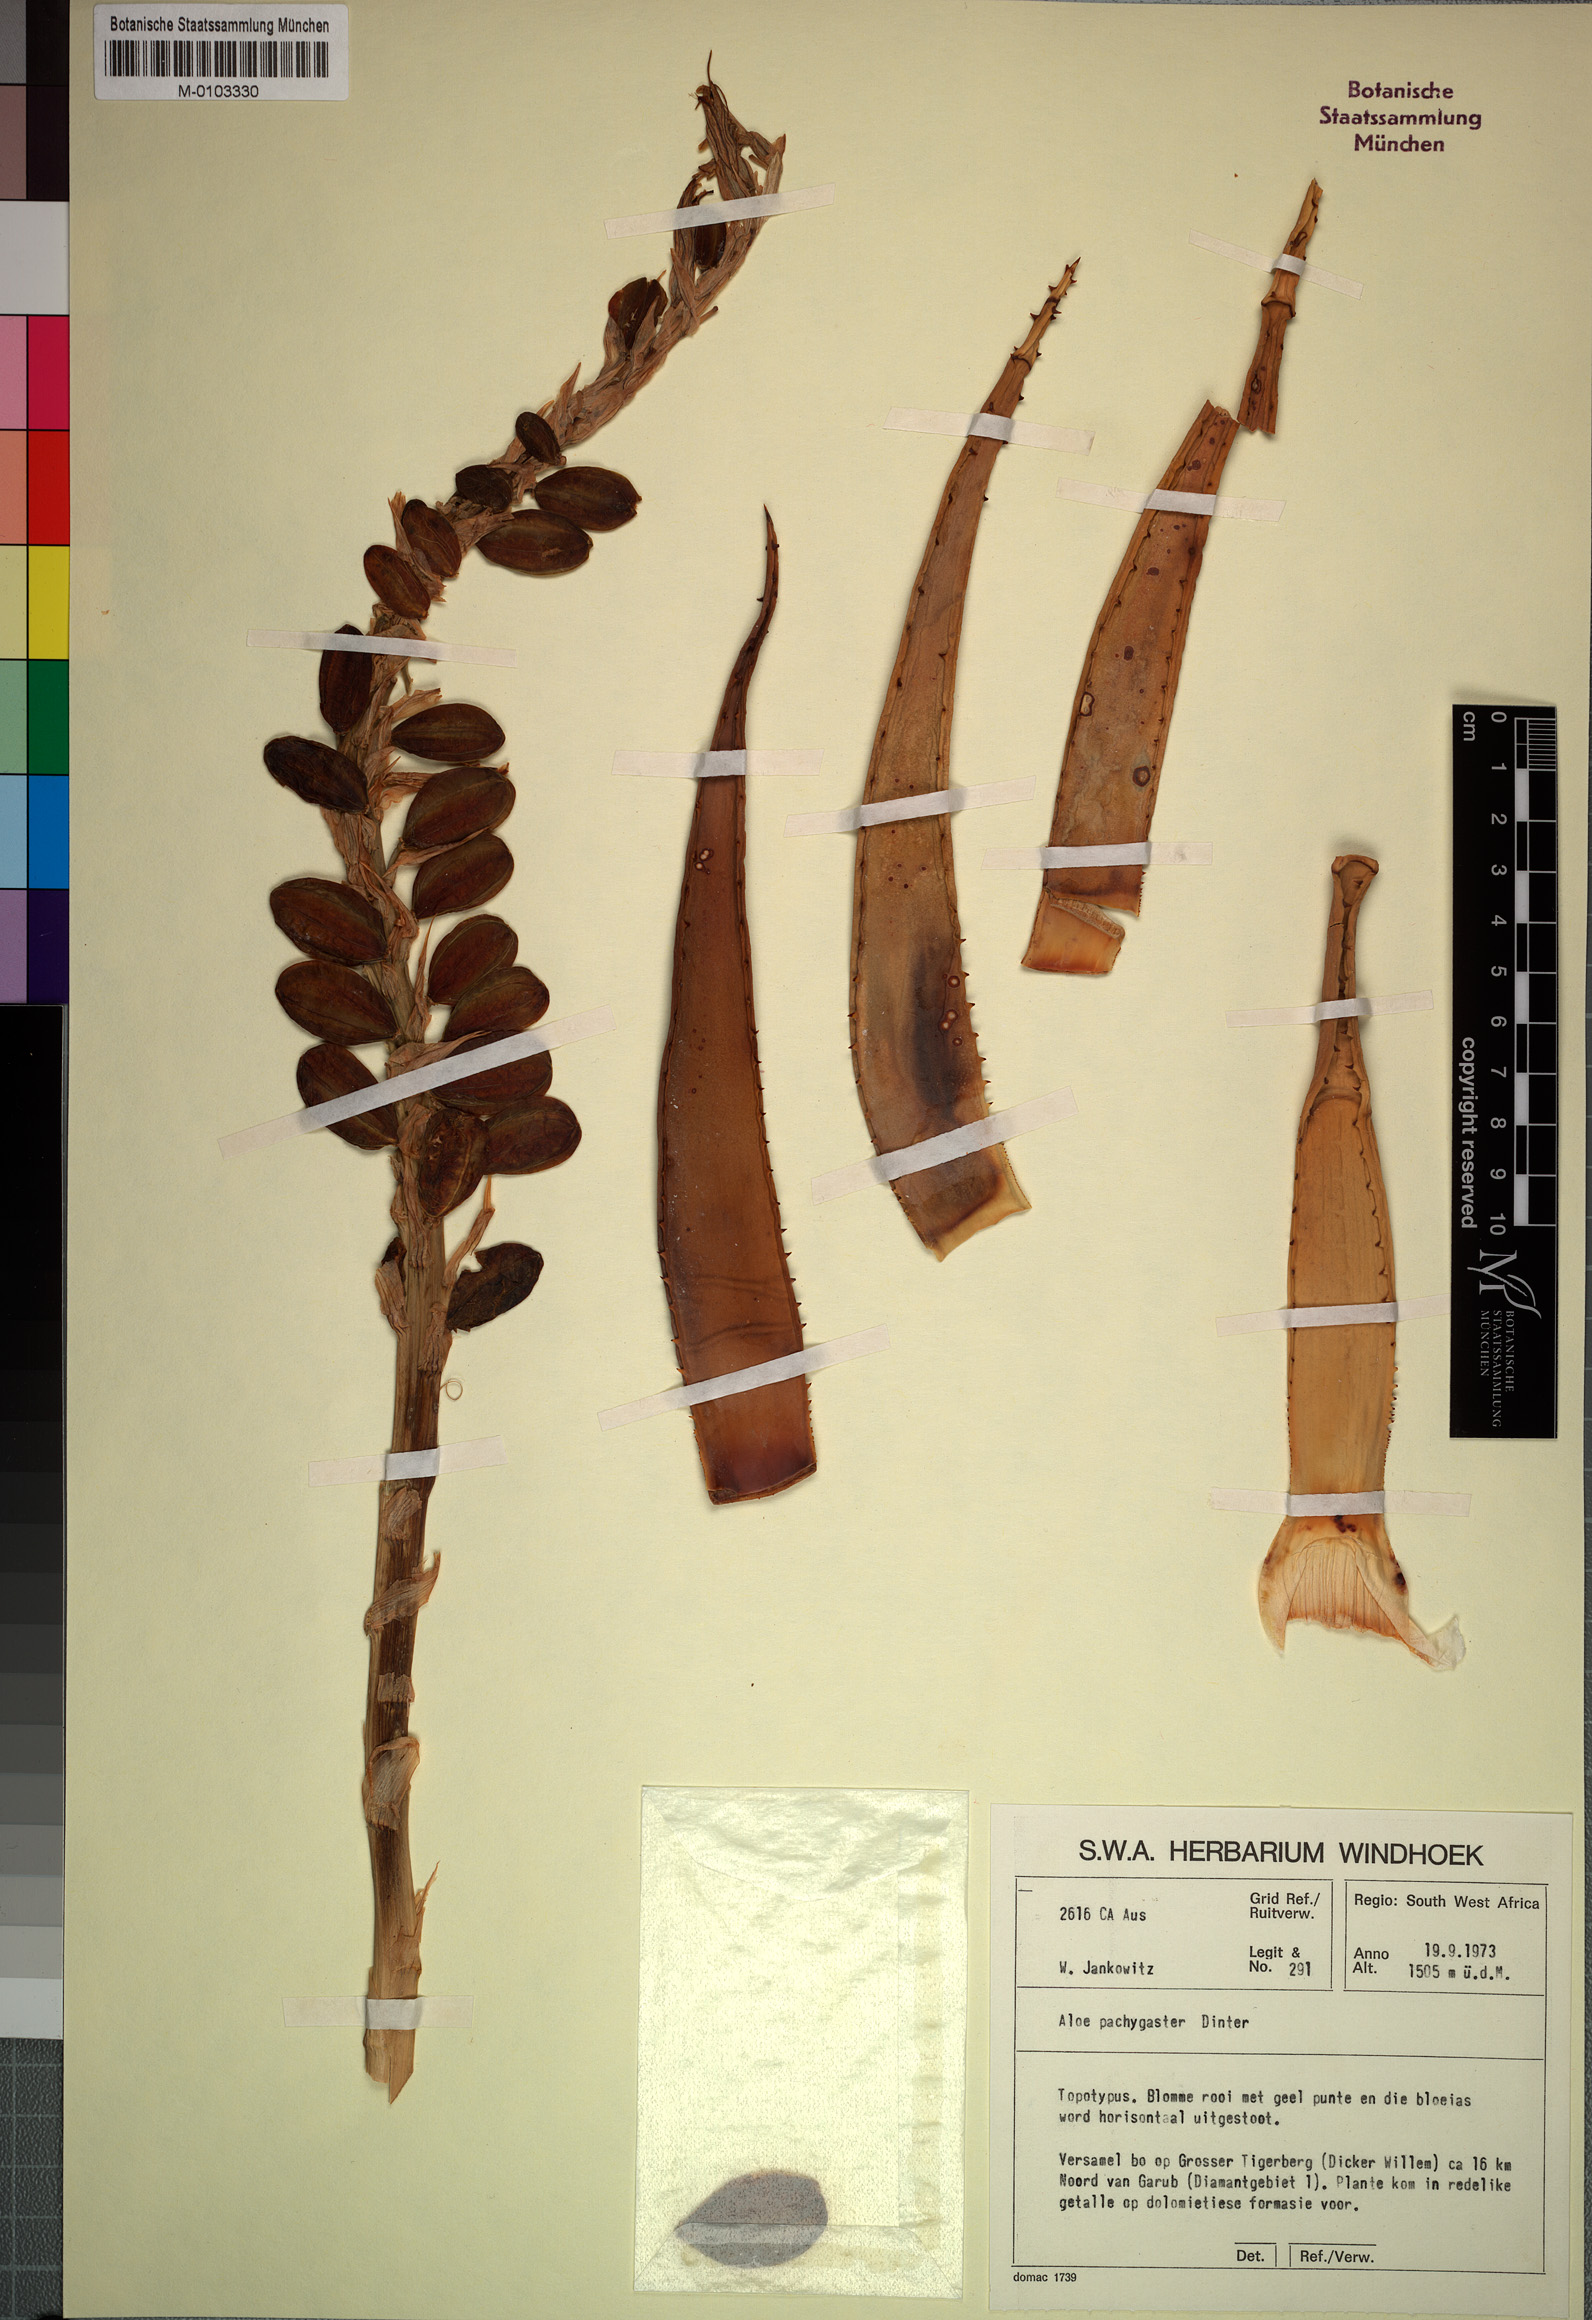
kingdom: Plantae
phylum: Tracheophyta
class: Liliopsida
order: Asparagales
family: Asphodelaceae
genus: Aloe
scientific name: Aloe pachygaster
